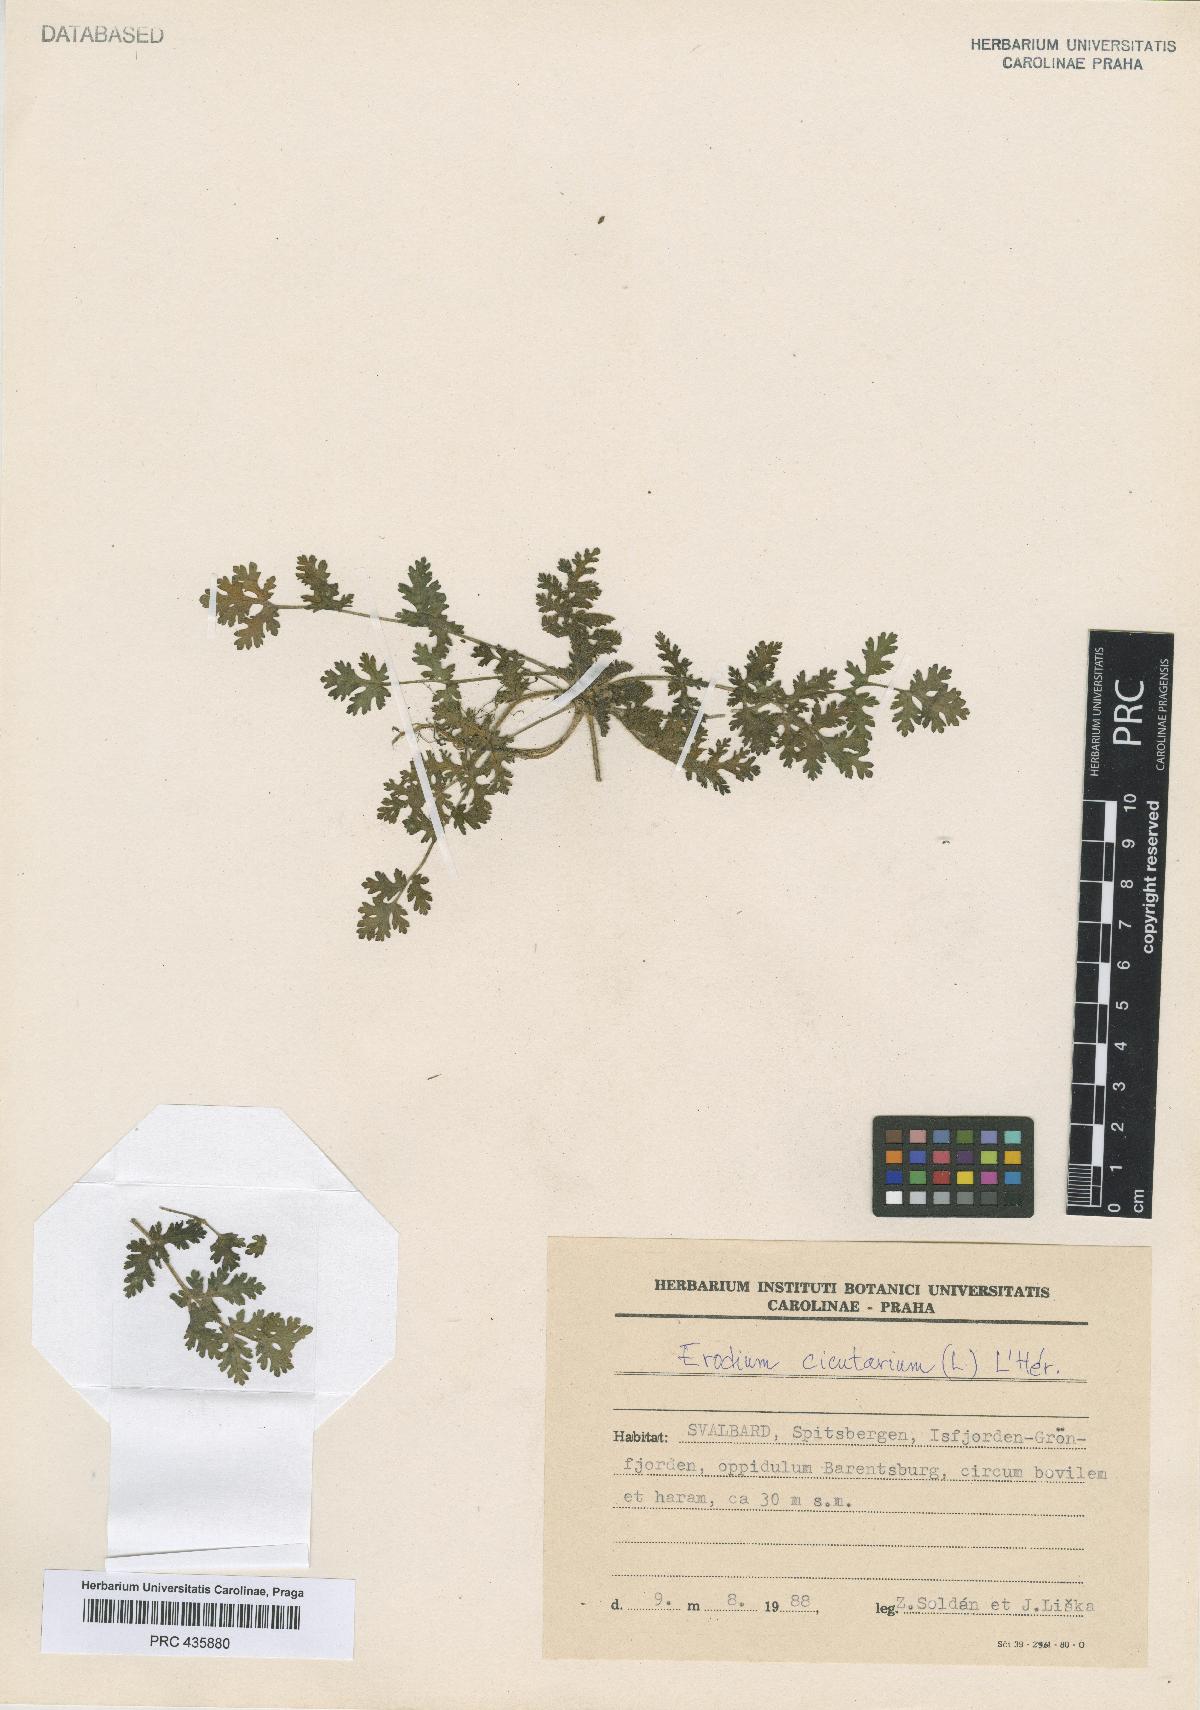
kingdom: Plantae
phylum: Tracheophyta
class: Magnoliopsida
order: Geraniales
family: Geraniaceae
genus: Erodium
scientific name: Erodium cicutarium
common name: Common stork's-bill
